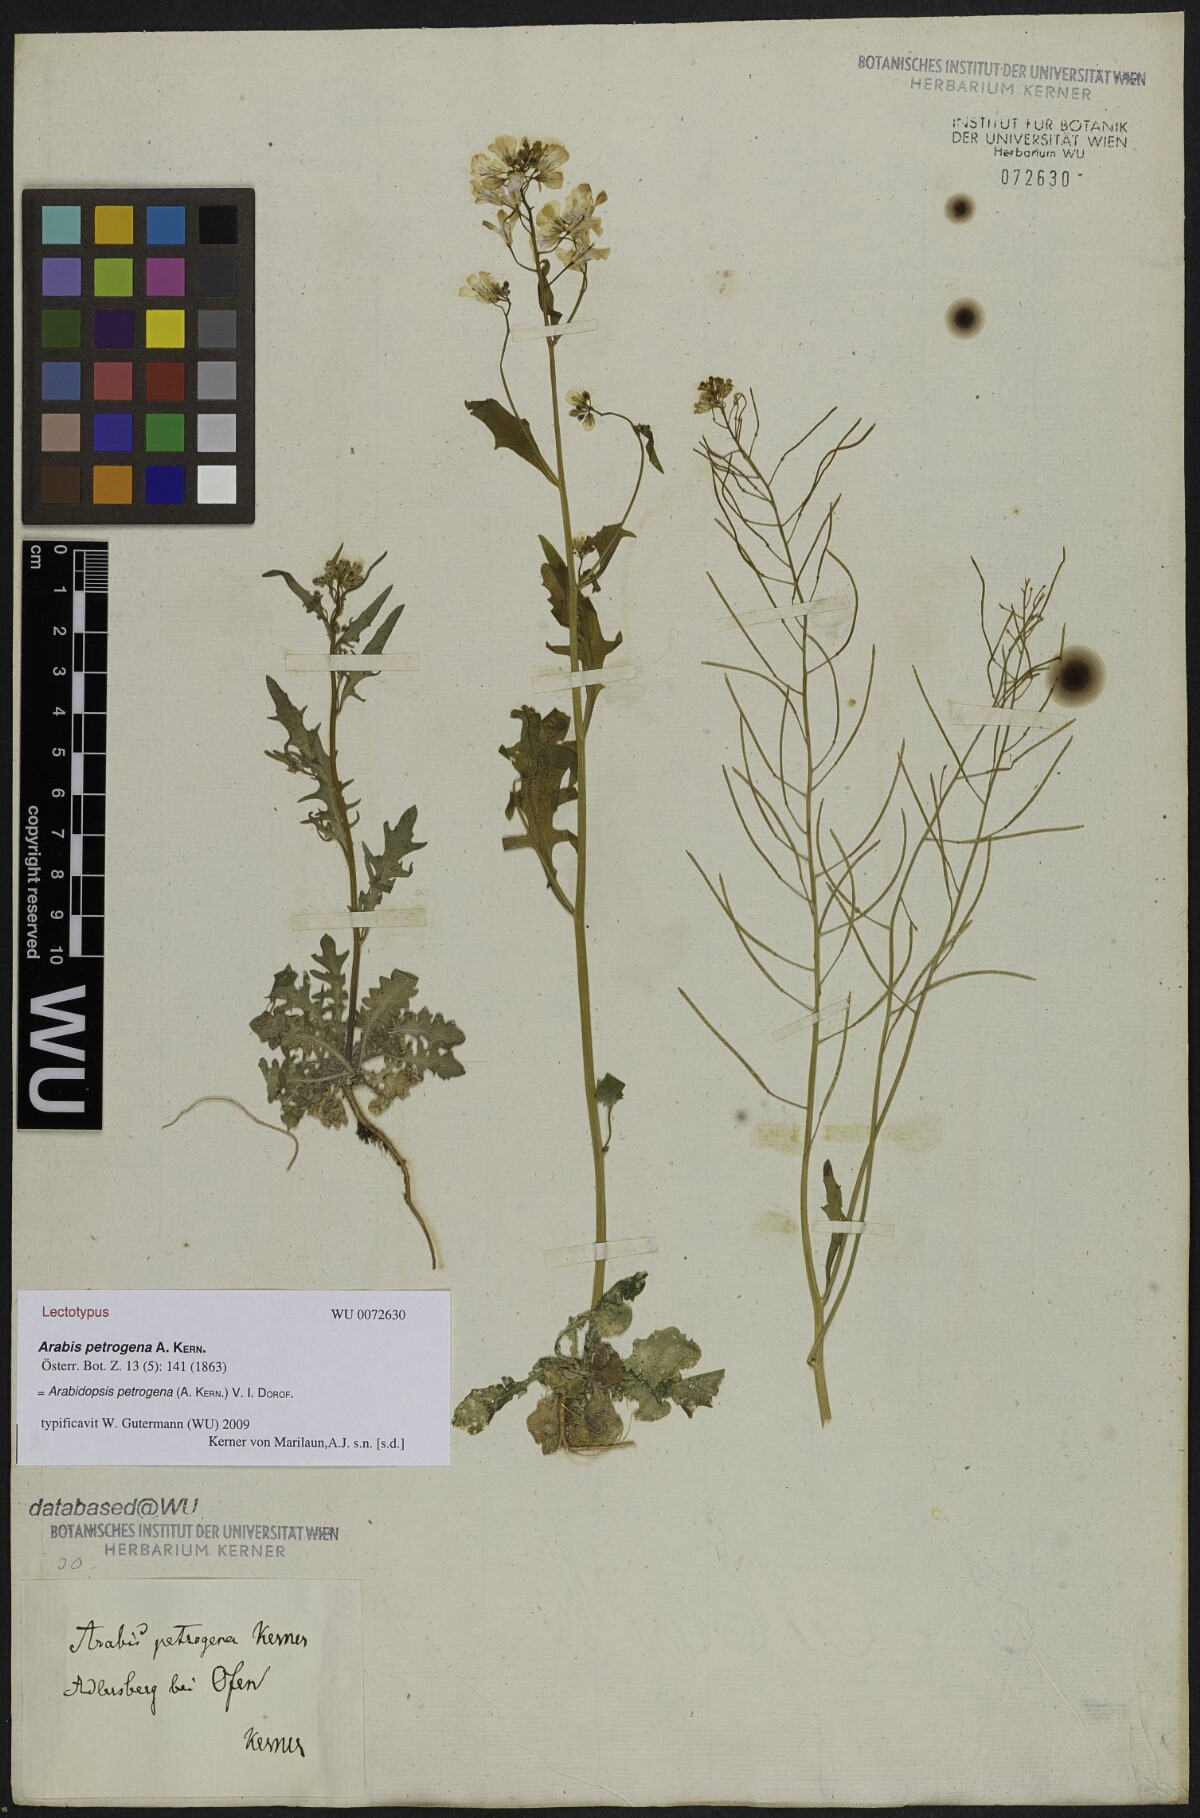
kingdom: Plantae
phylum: Tracheophyta
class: Magnoliopsida
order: Brassicales
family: Brassicaceae
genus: Arabidopsis
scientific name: Arabidopsis petrogena
